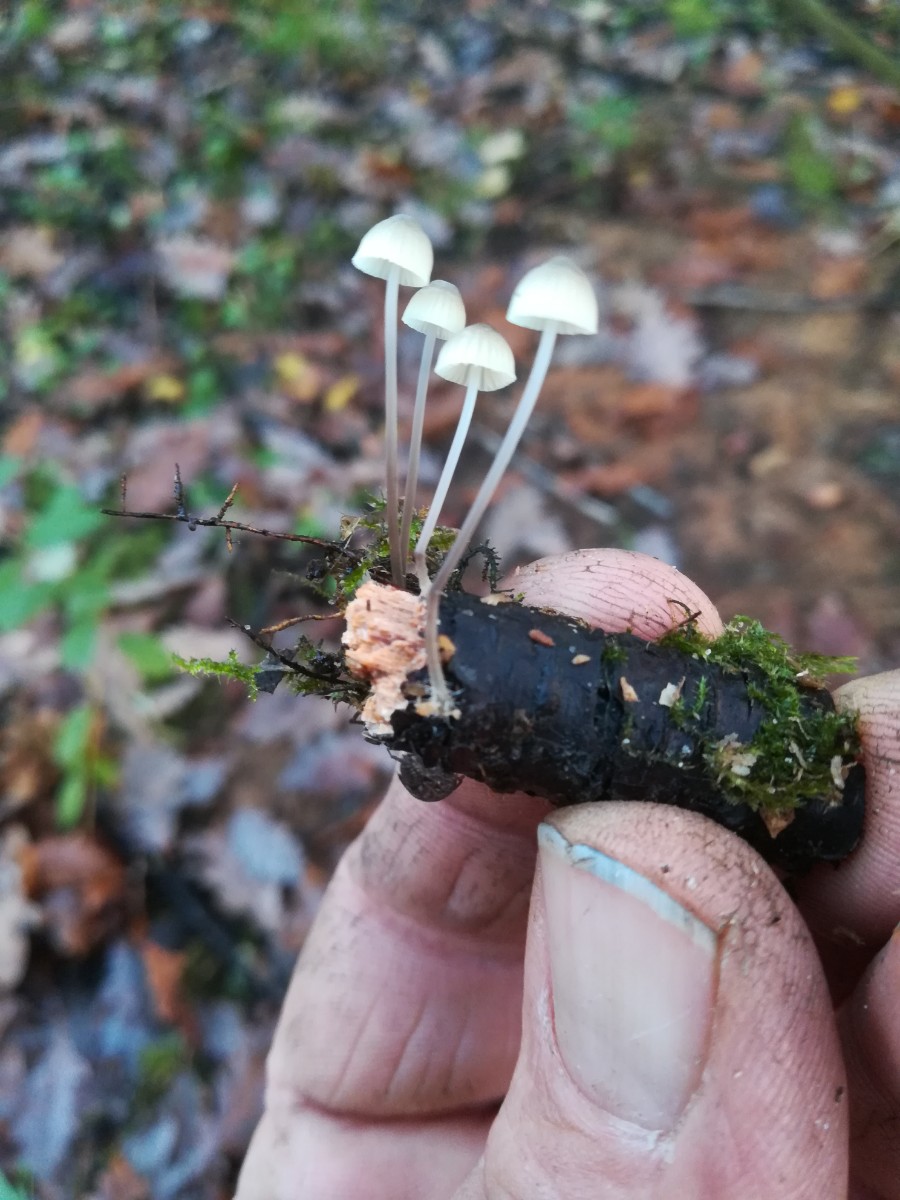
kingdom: Fungi
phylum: Basidiomycota
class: Agaricomycetes
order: Agaricales
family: Mycenaceae
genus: Mycena
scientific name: Mycena arcangeliana
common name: oliven-huesvamp
